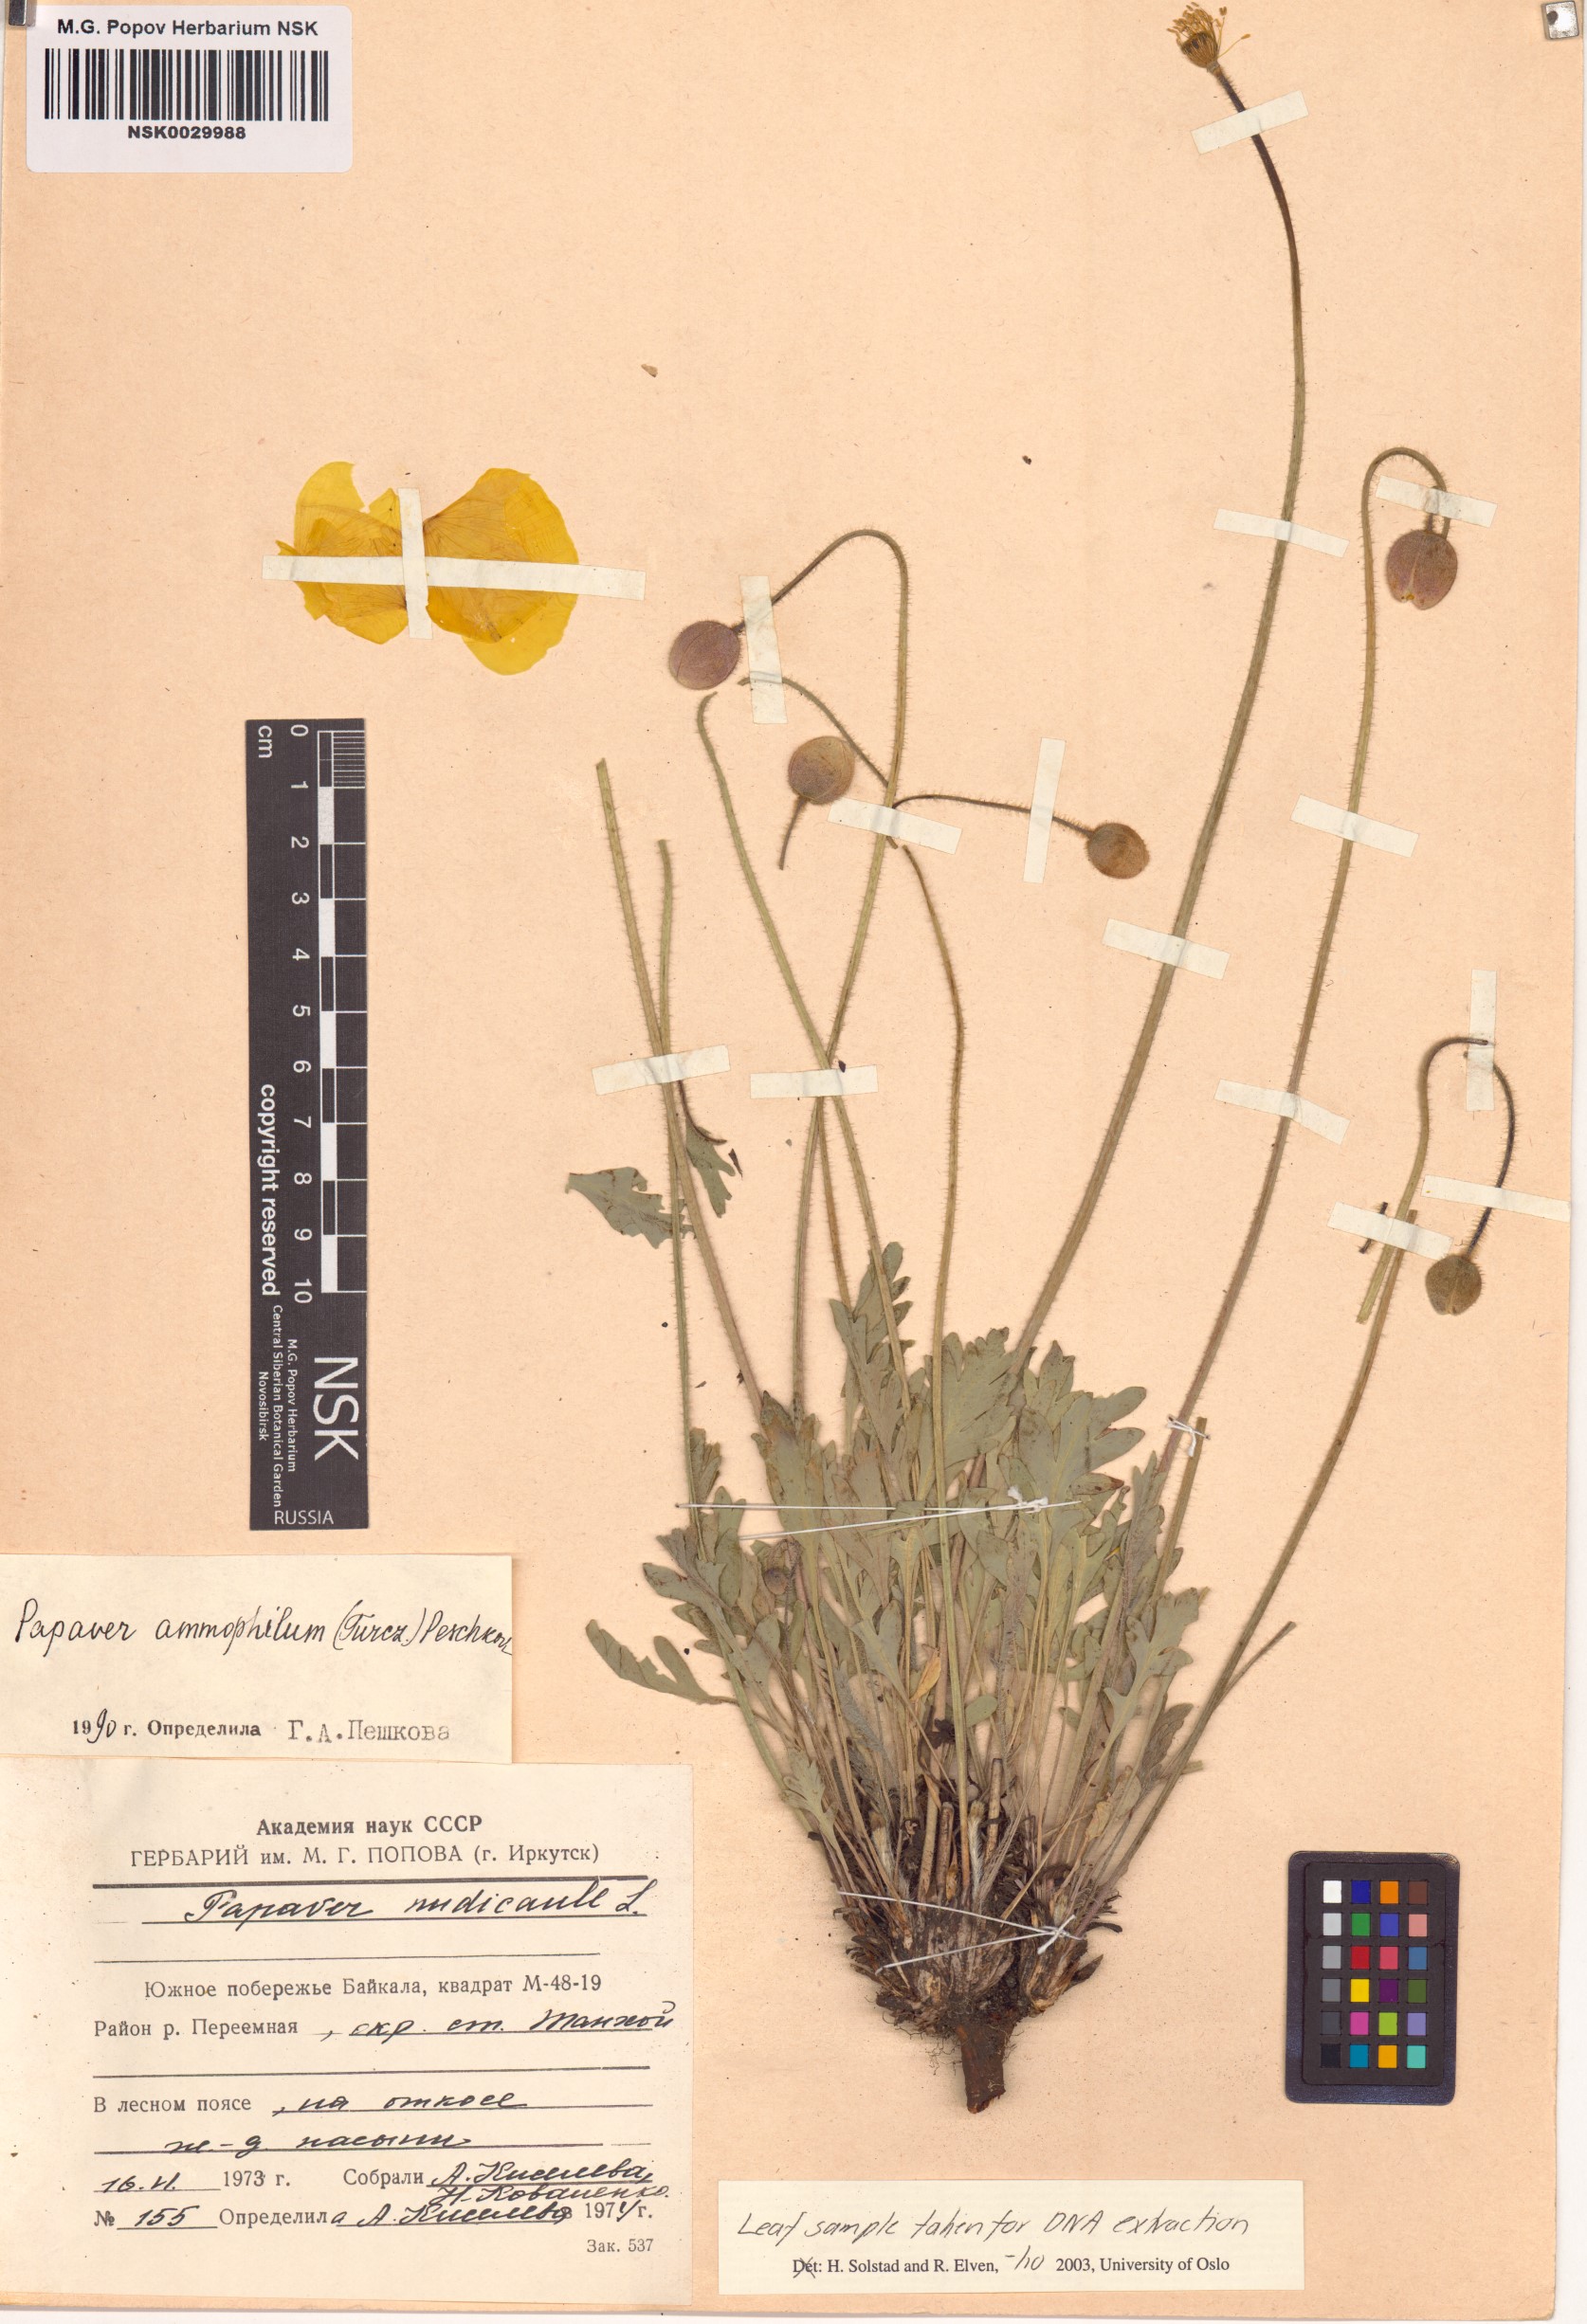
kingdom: Plantae
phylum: Tracheophyta
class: Magnoliopsida
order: Ranunculales
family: Papaveraceae
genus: Papaver
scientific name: Papaver nudicaule
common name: Arctic poppy
